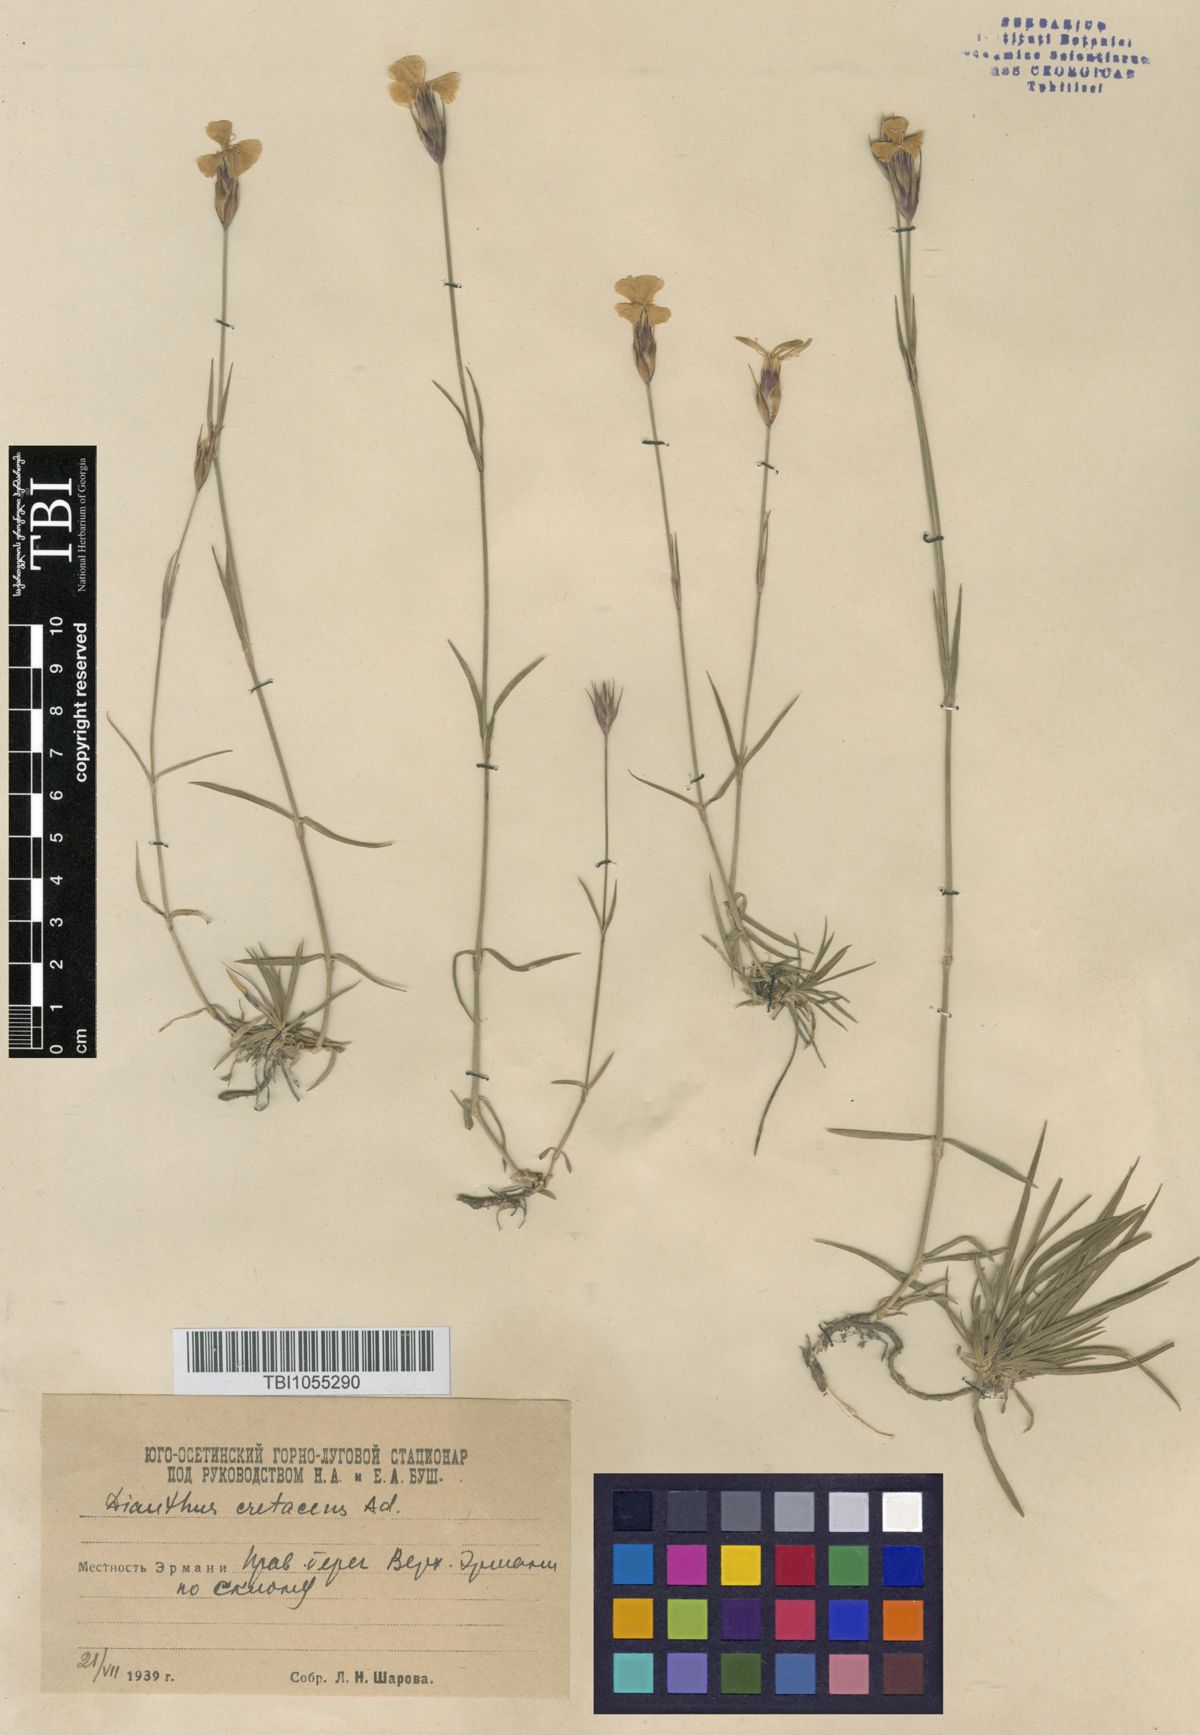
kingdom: Plantae
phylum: Tracheophyta
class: Magnoliopsida
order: Caryophyllales
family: Caryophyllaceae
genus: Dianthus
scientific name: Dianthus cretaceus
